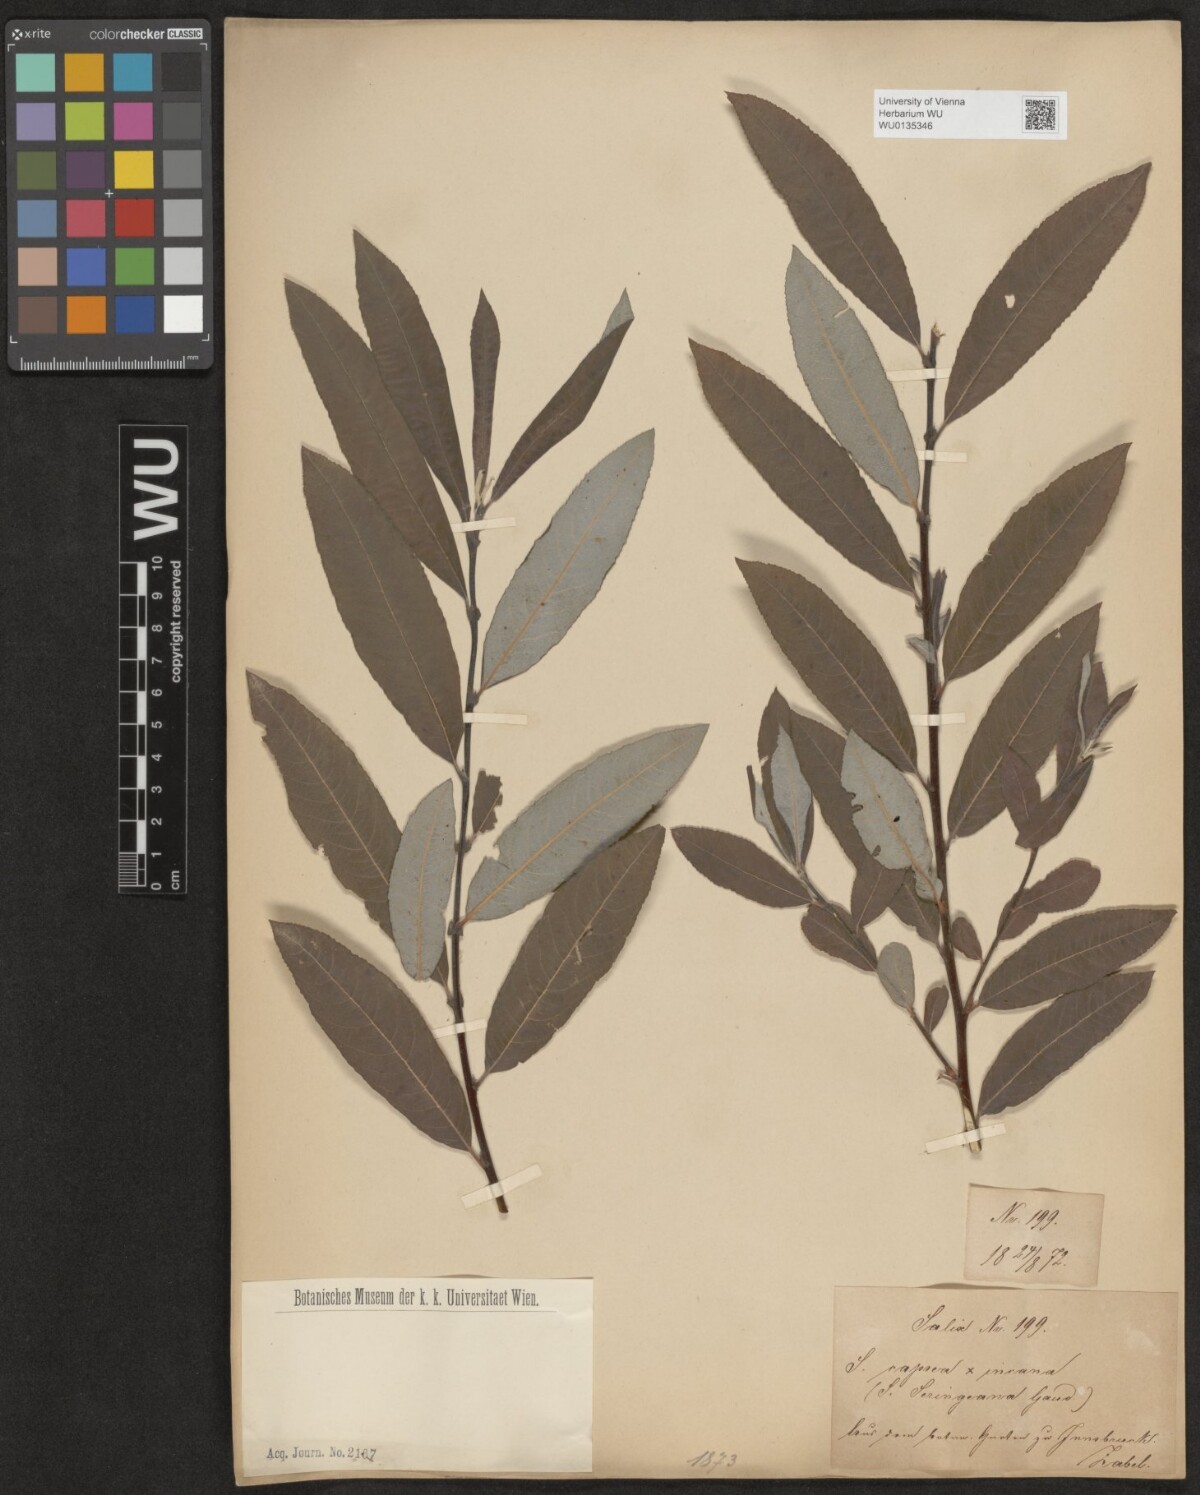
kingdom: Plantae
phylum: Tracheophyta
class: Magnoliopsida
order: Malpighiales
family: Salicaceae
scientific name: Salicaceae
